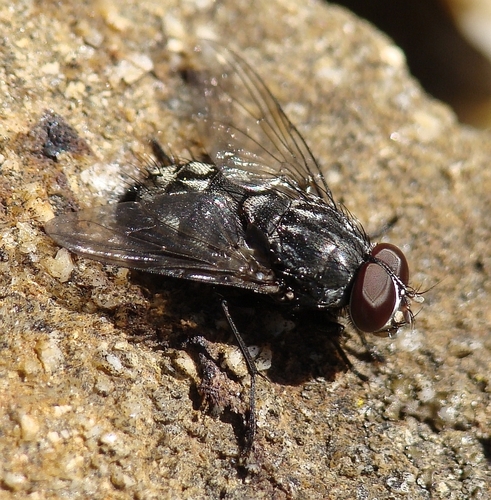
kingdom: Animalia
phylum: Arthropoda
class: Insecta
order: Diptera
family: Muscidae
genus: Muscina
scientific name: Muscina prolapsa
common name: Muscoid fly
